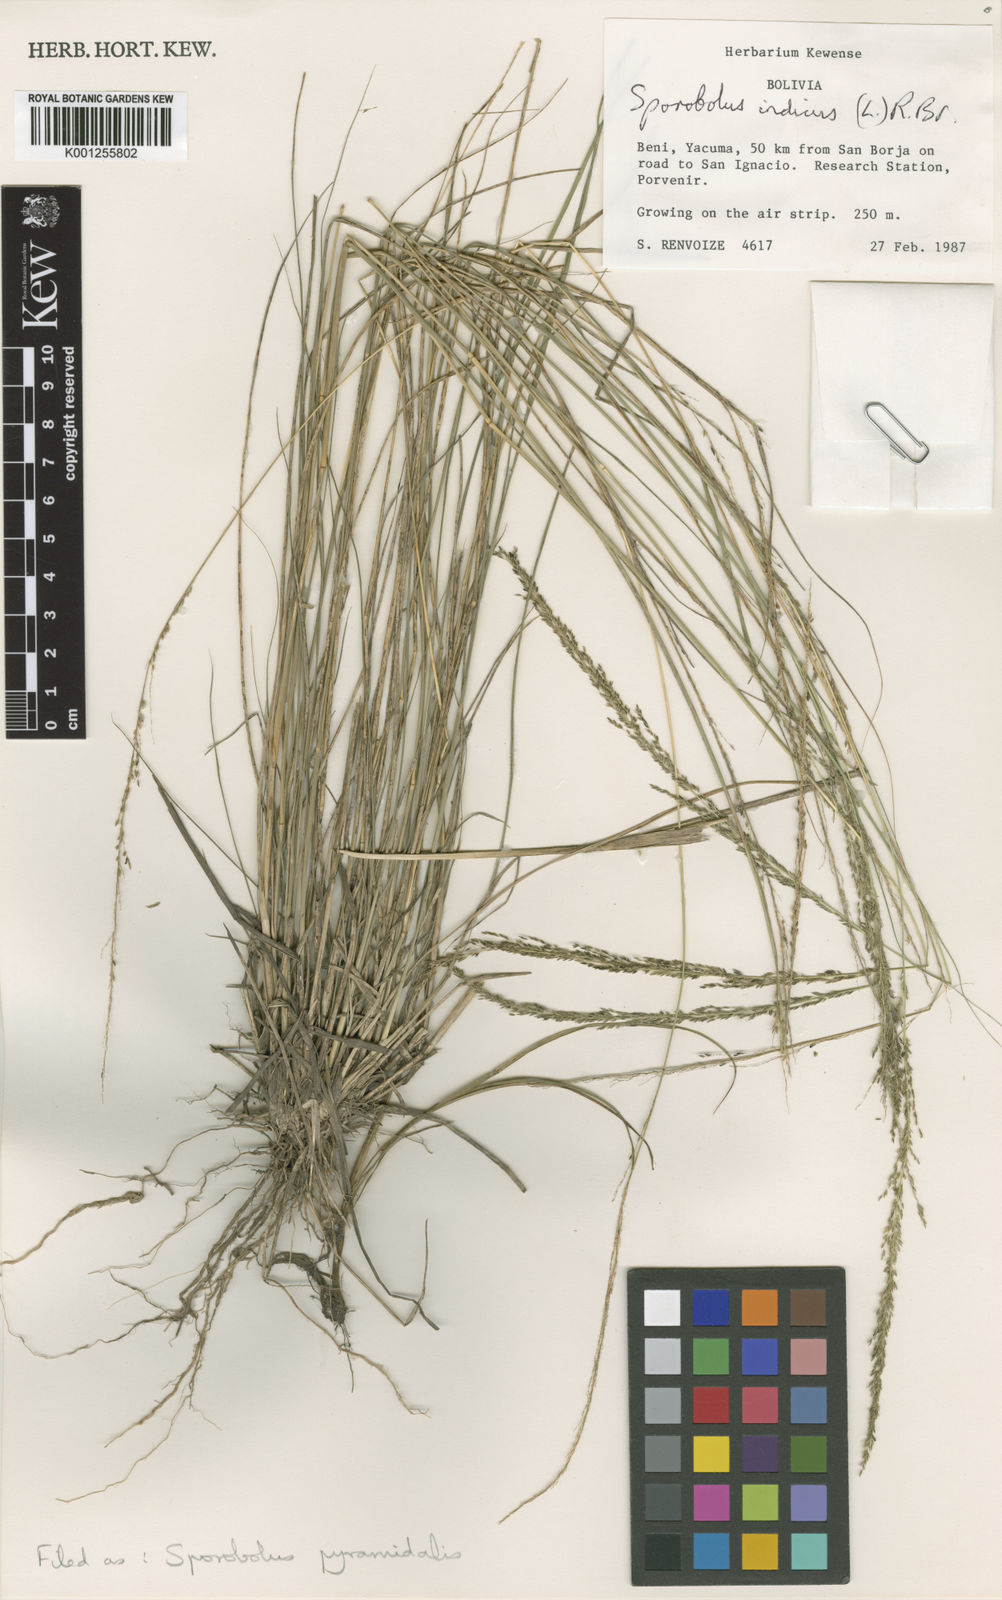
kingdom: Plantae
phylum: Tracheophyta
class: Liliopsida
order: Poales
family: Poaceae
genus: Sporobolus
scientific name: Sporobolus pyramidalis
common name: West indian dropseed
